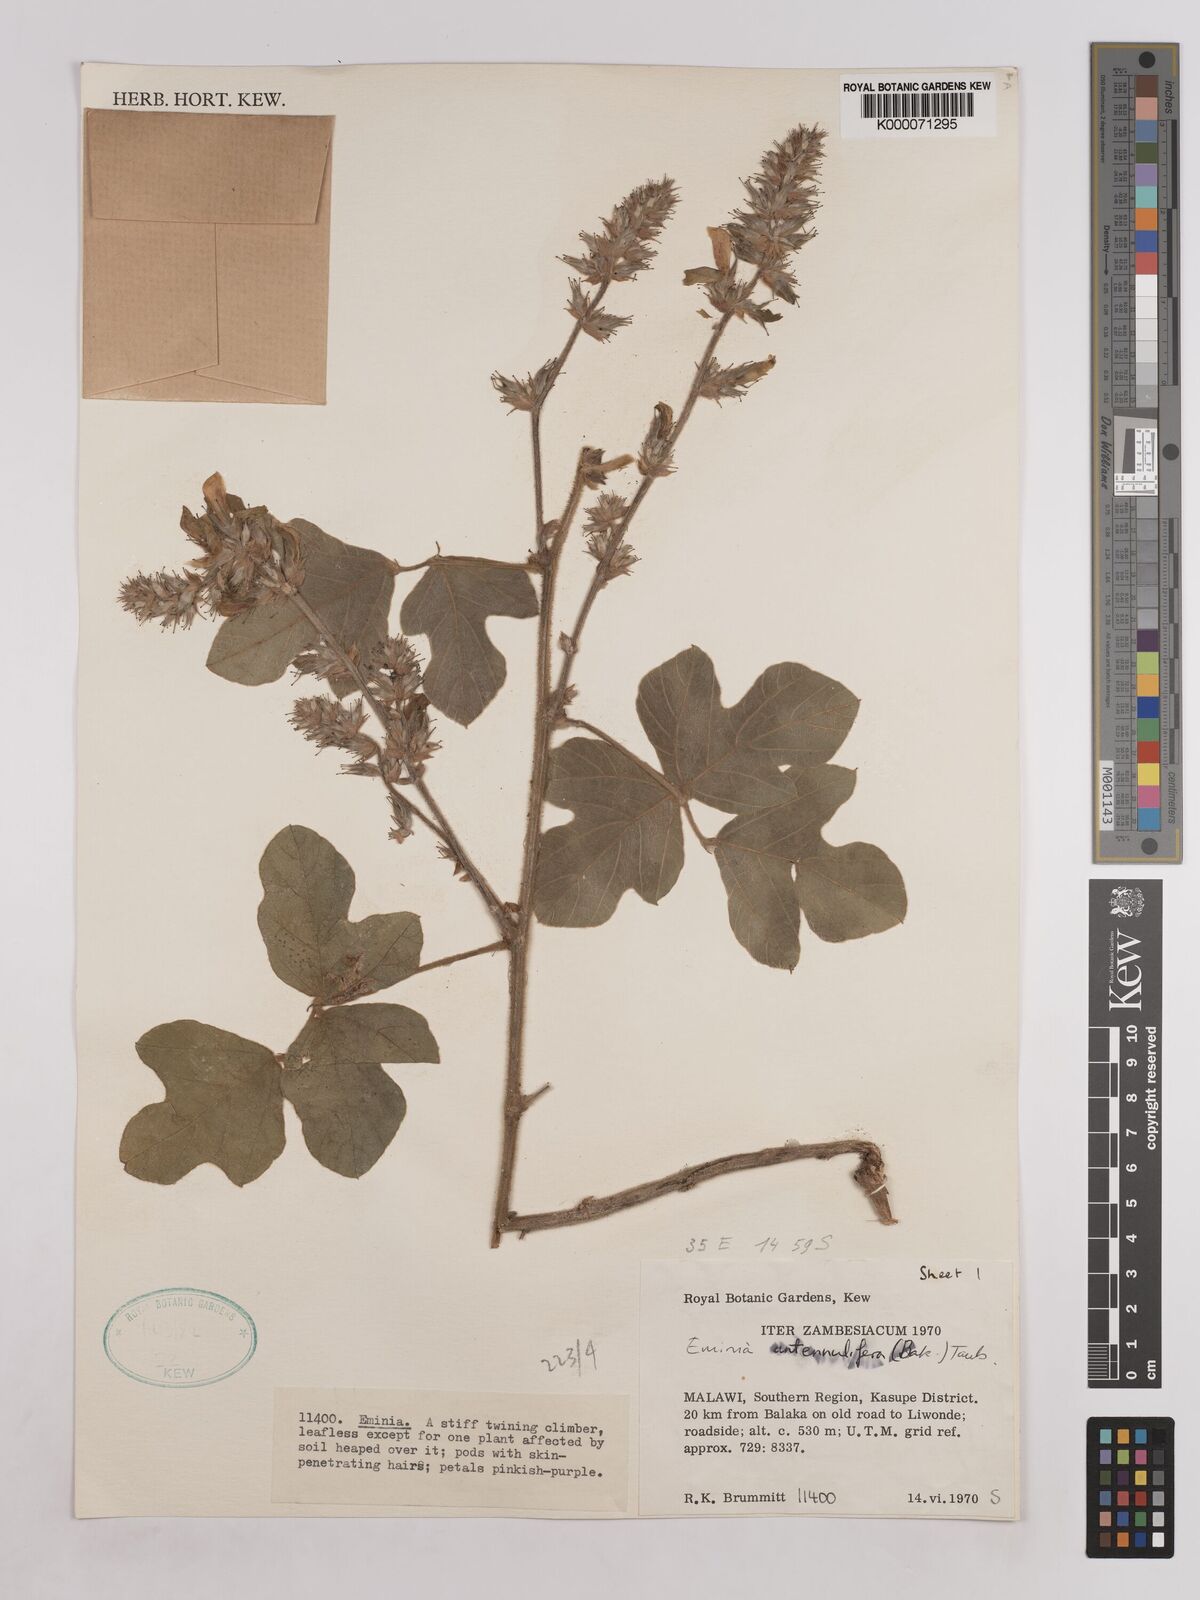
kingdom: Plantae
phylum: Tracheophyta
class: Magnoliopsida
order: Fabales
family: Fabaceae
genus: Eminia
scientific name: Eminia antennulifera
